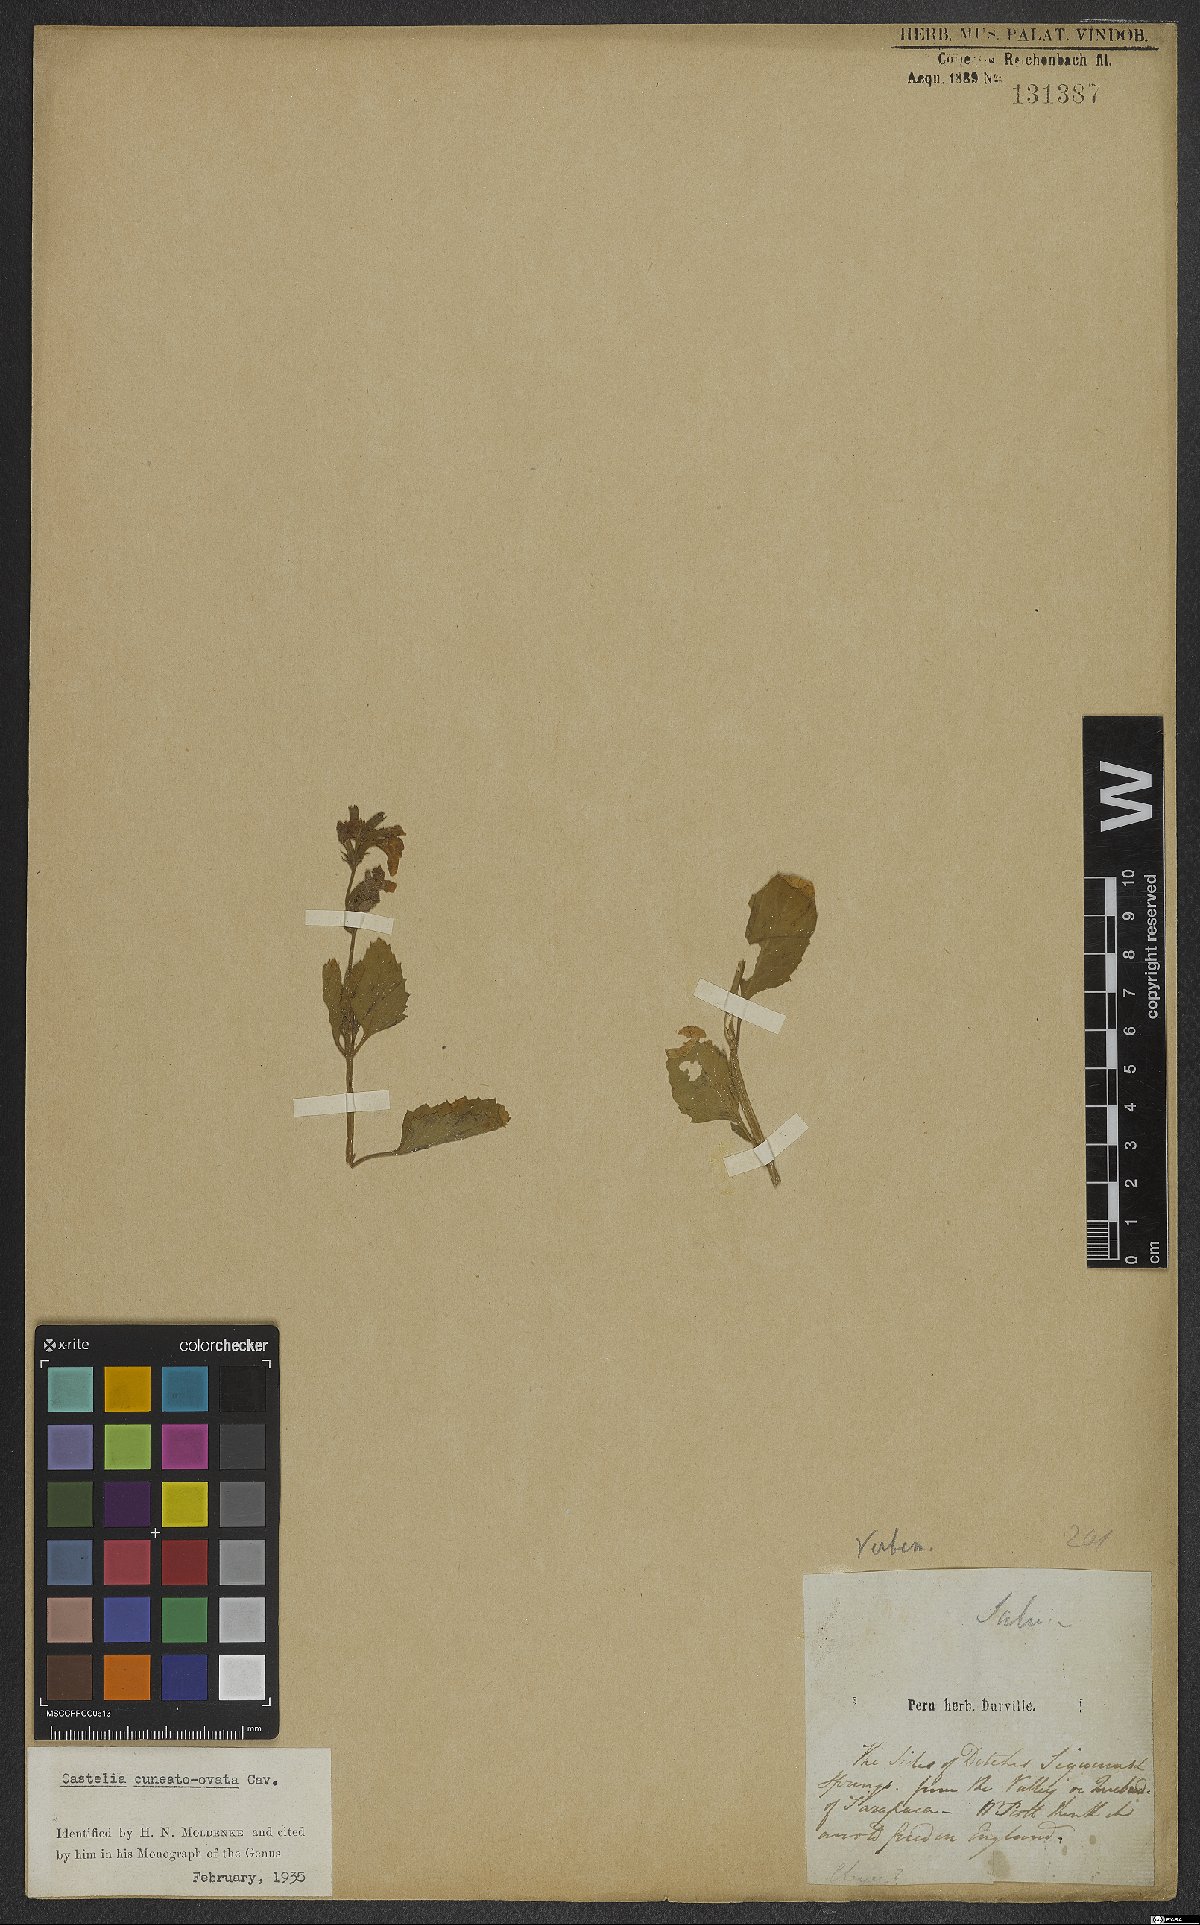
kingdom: Plantae
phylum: Tracheophyta
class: Magnoliopsida
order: Lamiales
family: Verbenaceae
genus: Pitraea
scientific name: Pitraea cuneato-ovata
